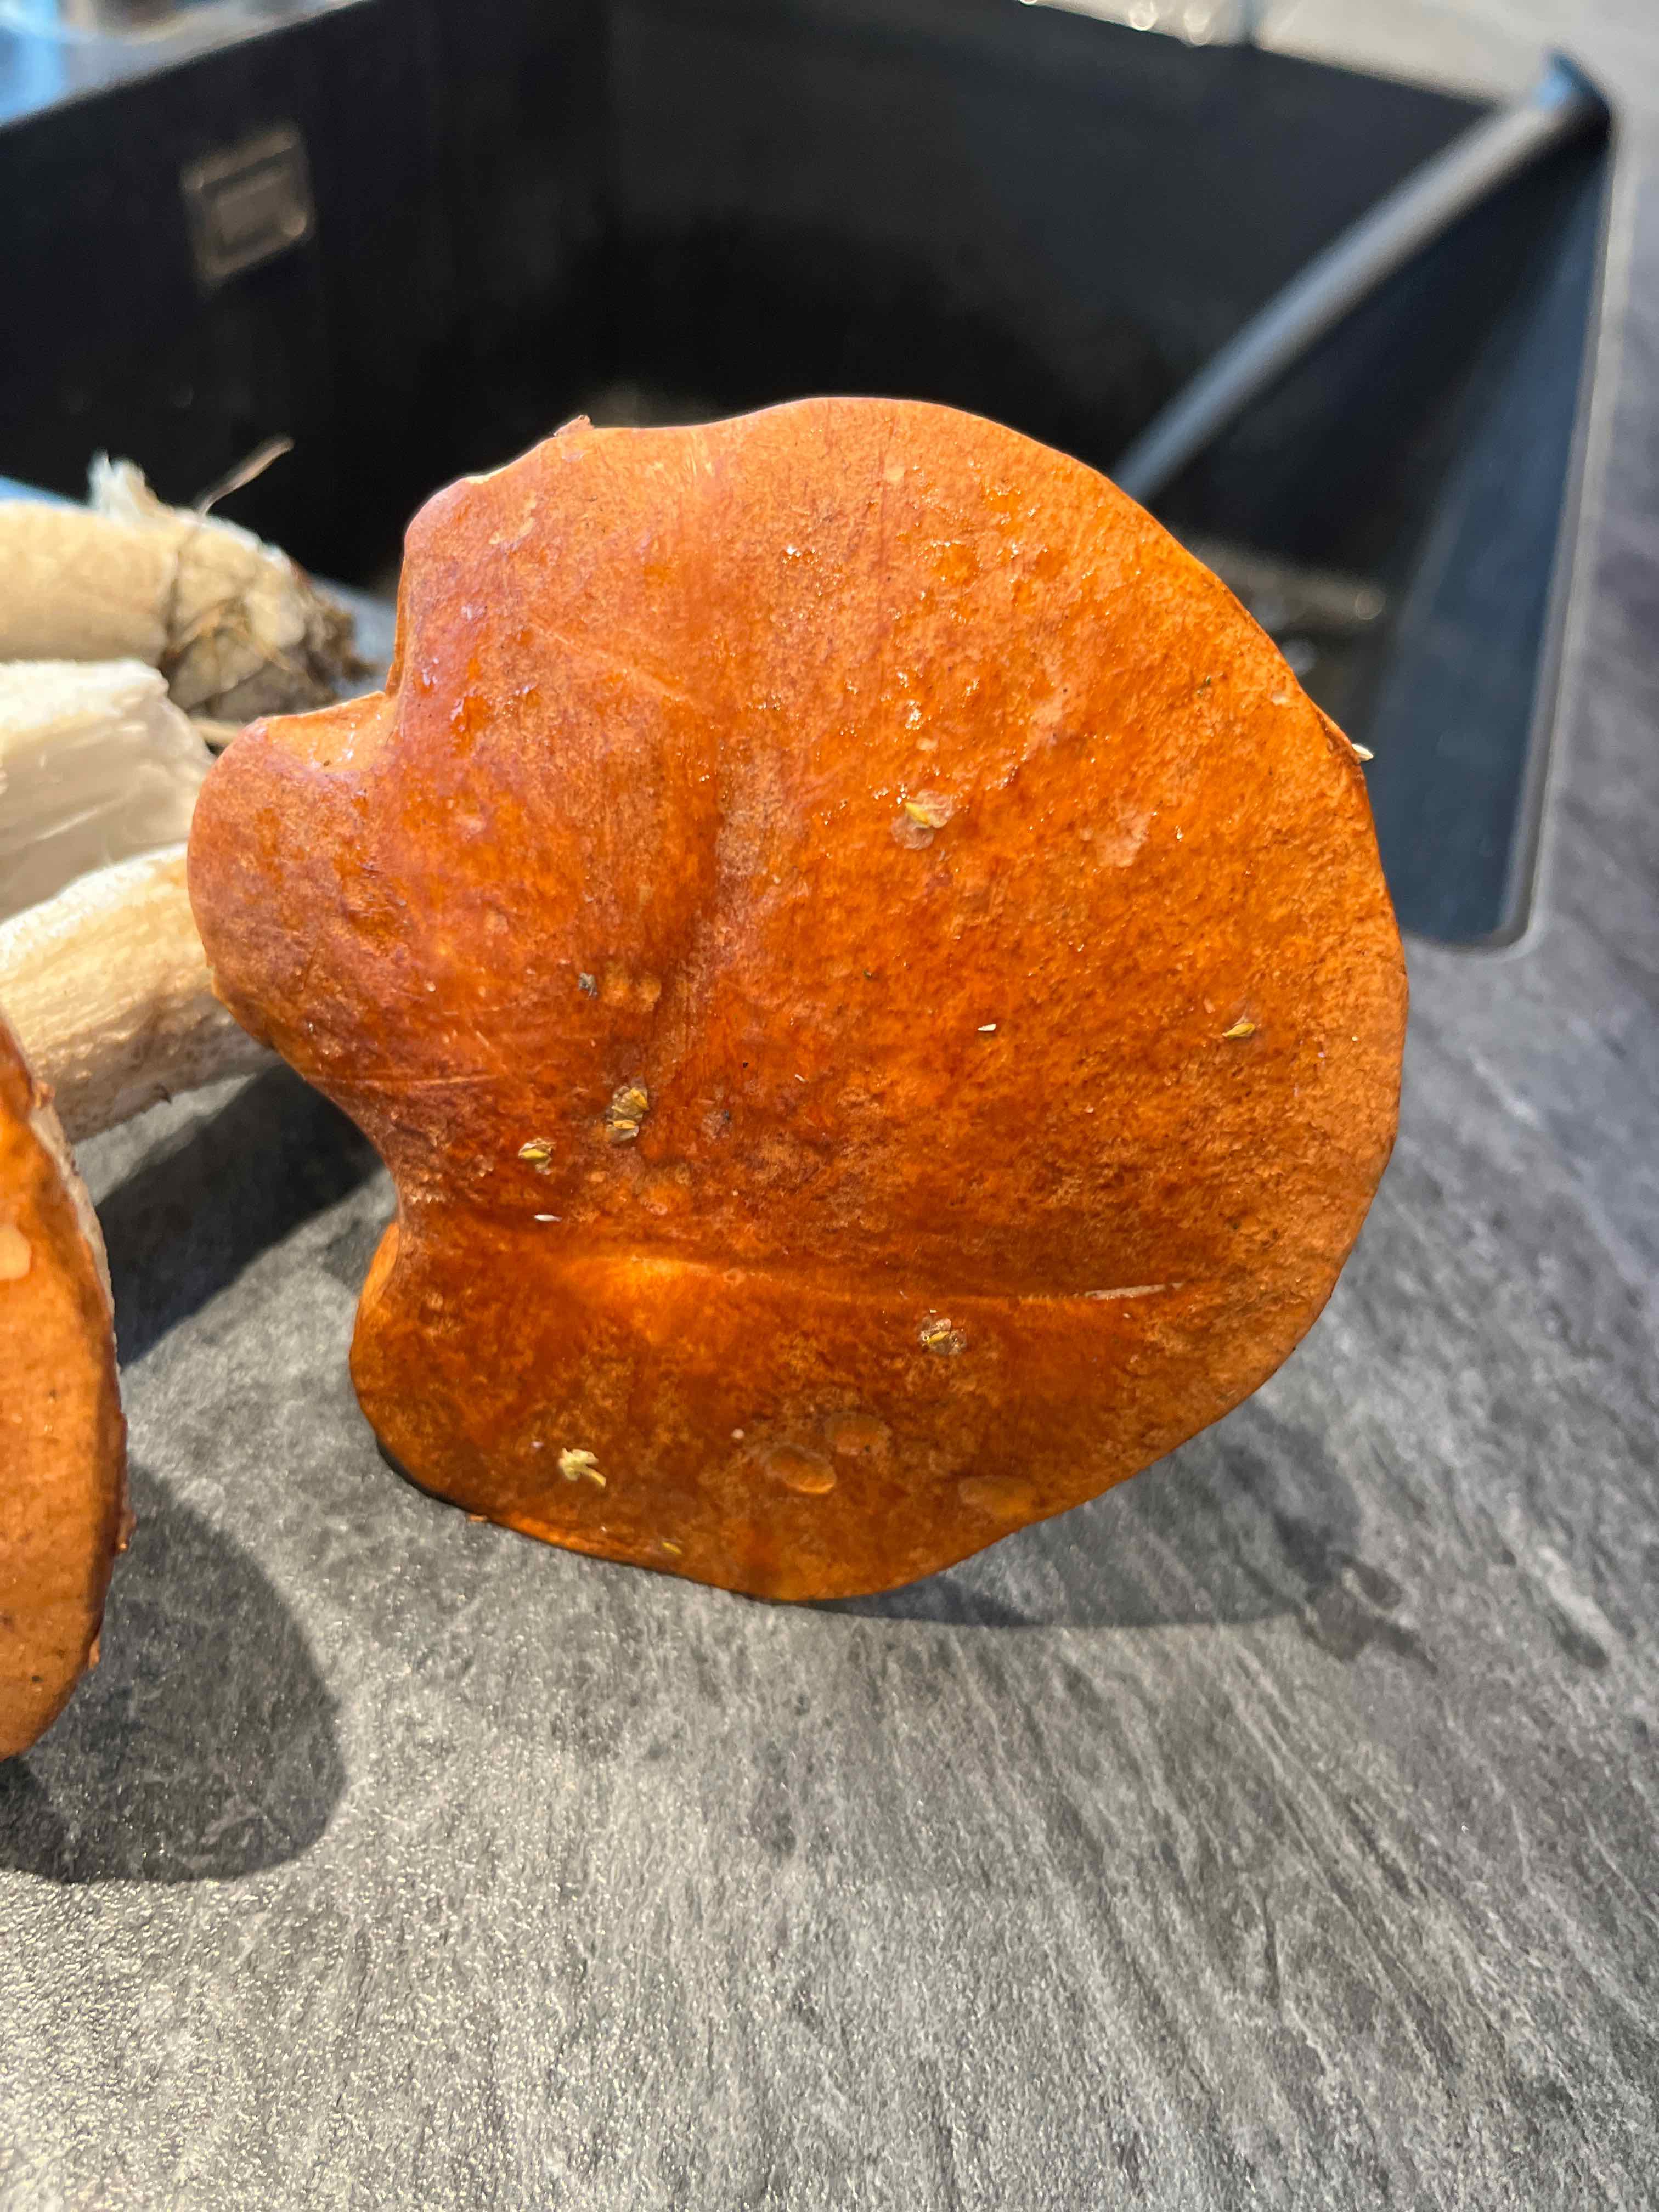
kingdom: Fungi
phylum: Basidiomycota
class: Agaricomycetes
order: Boletales
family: Boletaceae
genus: Leccinum
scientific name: Leccinum
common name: skælrørhat
